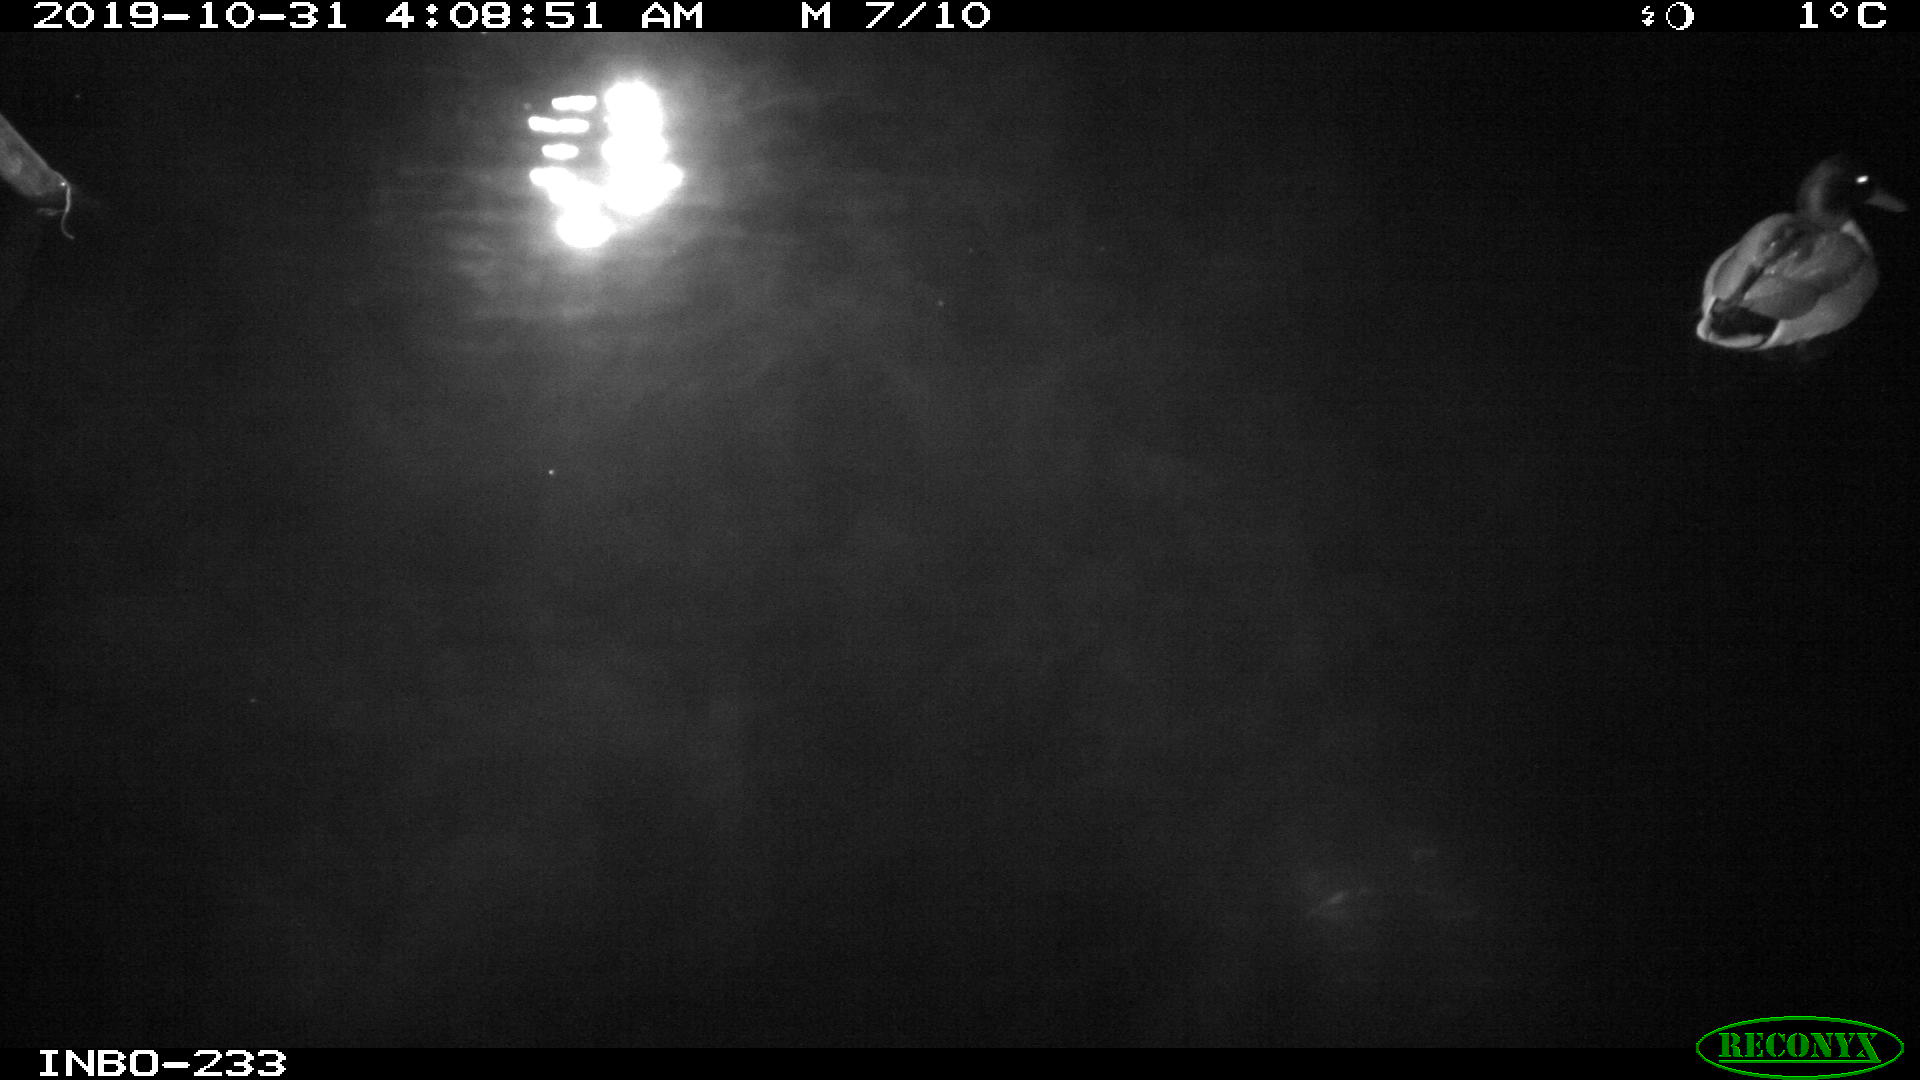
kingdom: Animalia
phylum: Chordata
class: Aves
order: Anseriformes
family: Anatidae
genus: Anas
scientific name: Anas platyrhynchos
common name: Mallard
